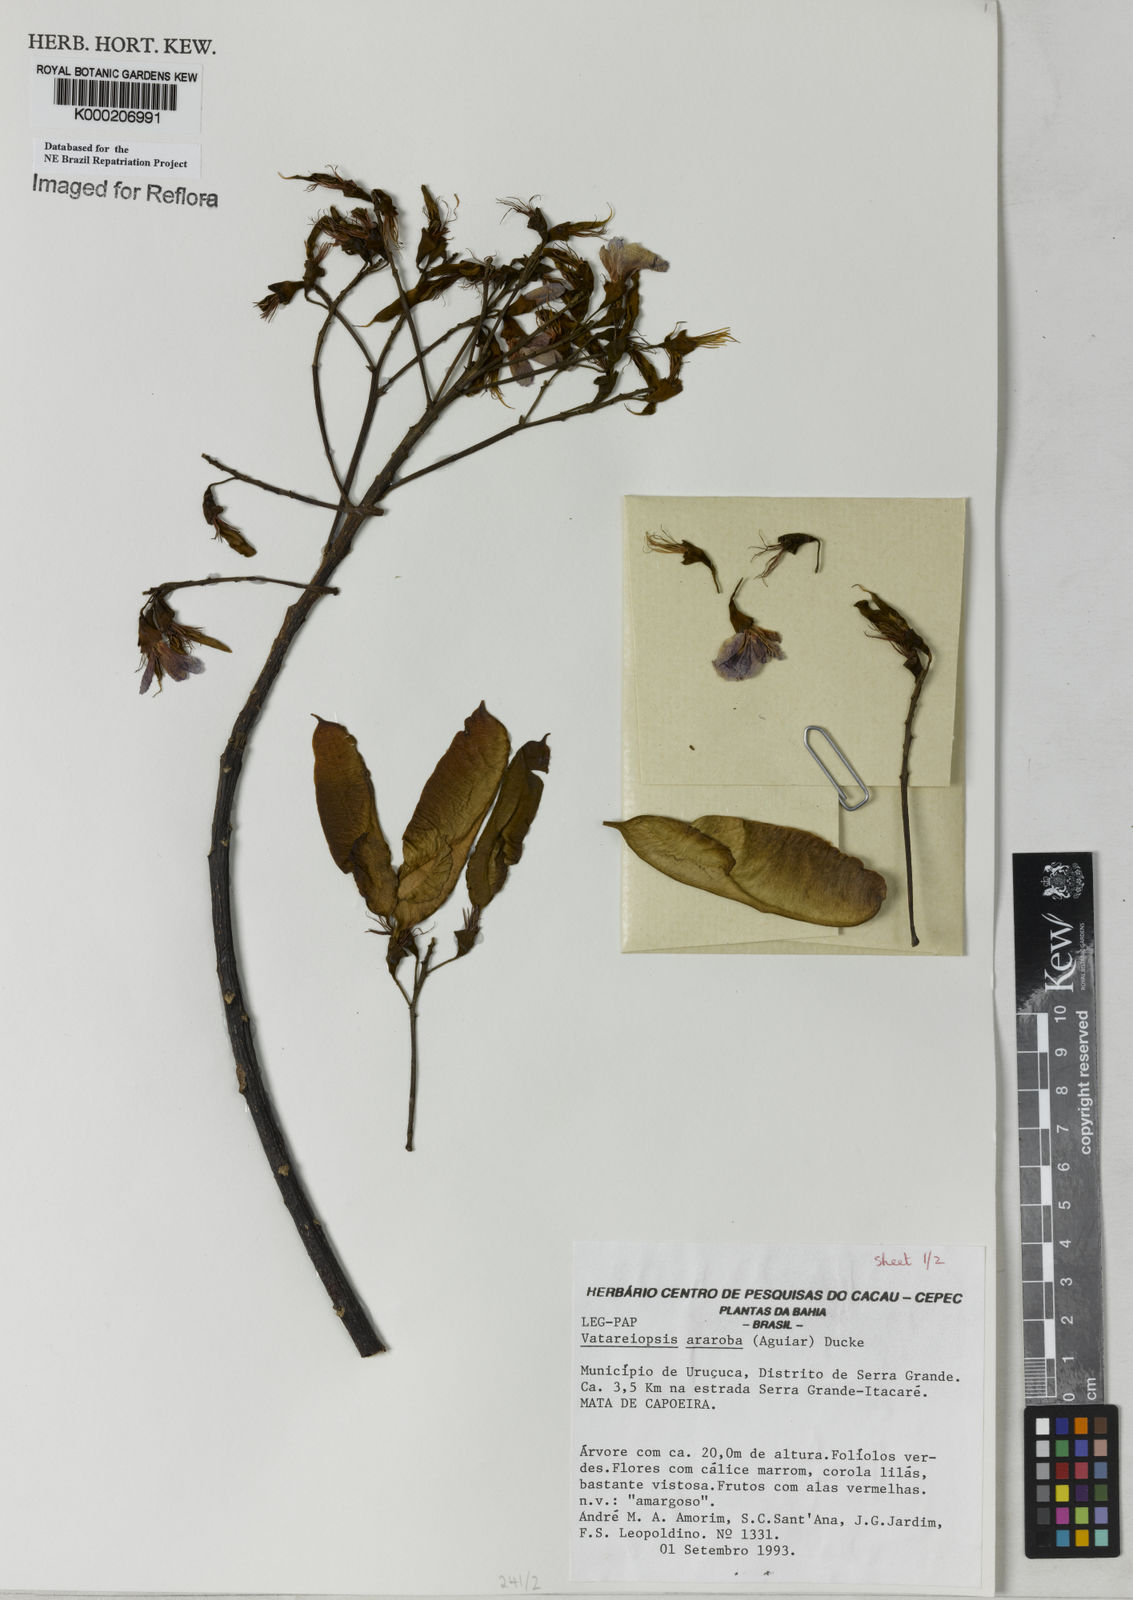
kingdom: Plantae
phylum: Tracheophyta
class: Magnoliopsida
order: Fabales
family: Fabaceae
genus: Vataireopsis
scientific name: Vataireopsis araroba
